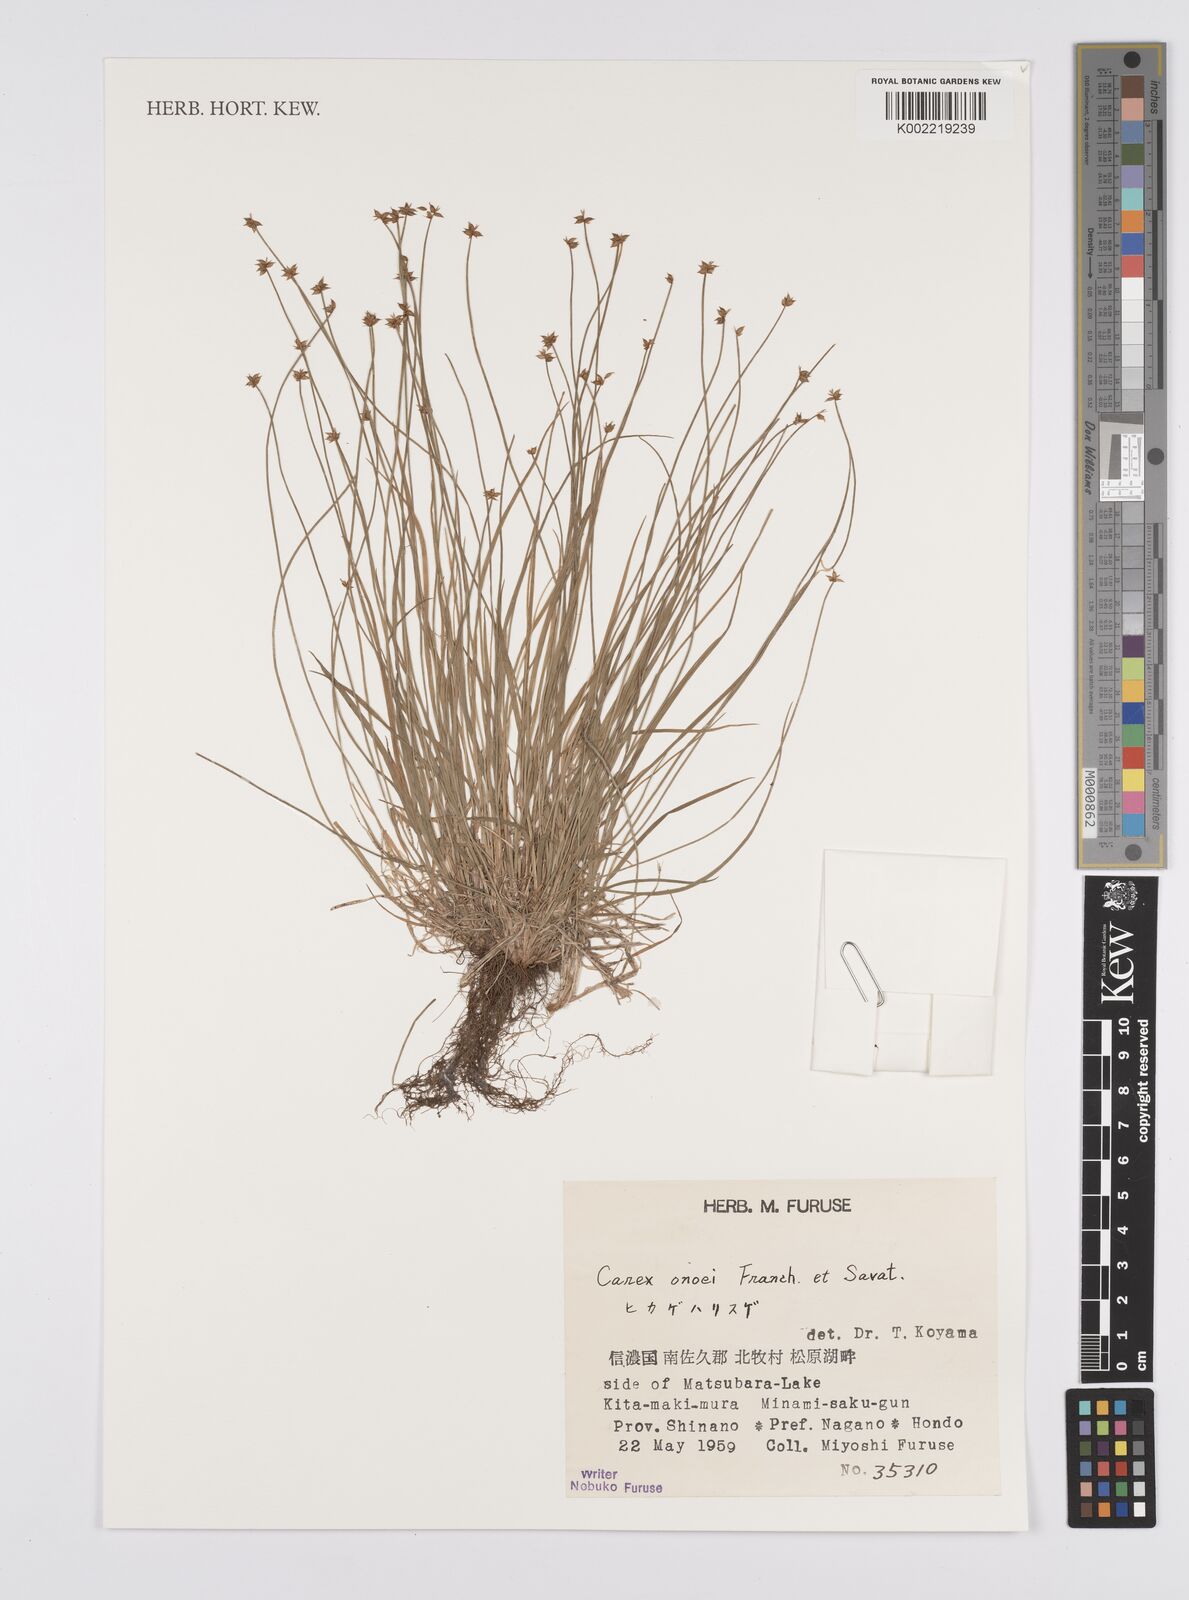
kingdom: Plantae
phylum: Tracheophyta
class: Liliopsida
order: Poales
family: Cyperaceae
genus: Carex
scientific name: Carex onoei
